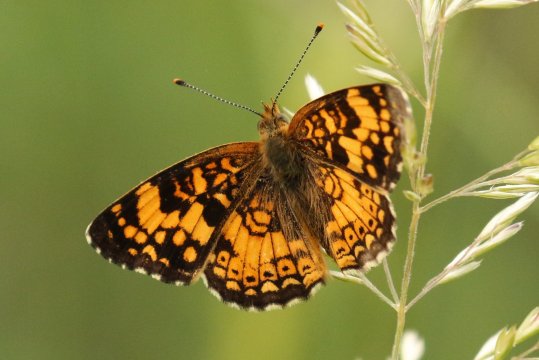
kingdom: Animalia
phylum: Arthropoda
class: Insecta
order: Lepidoptera
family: Nymphalidae
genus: Eresia
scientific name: Eresia aveyrona
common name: Mylitta Crescent
